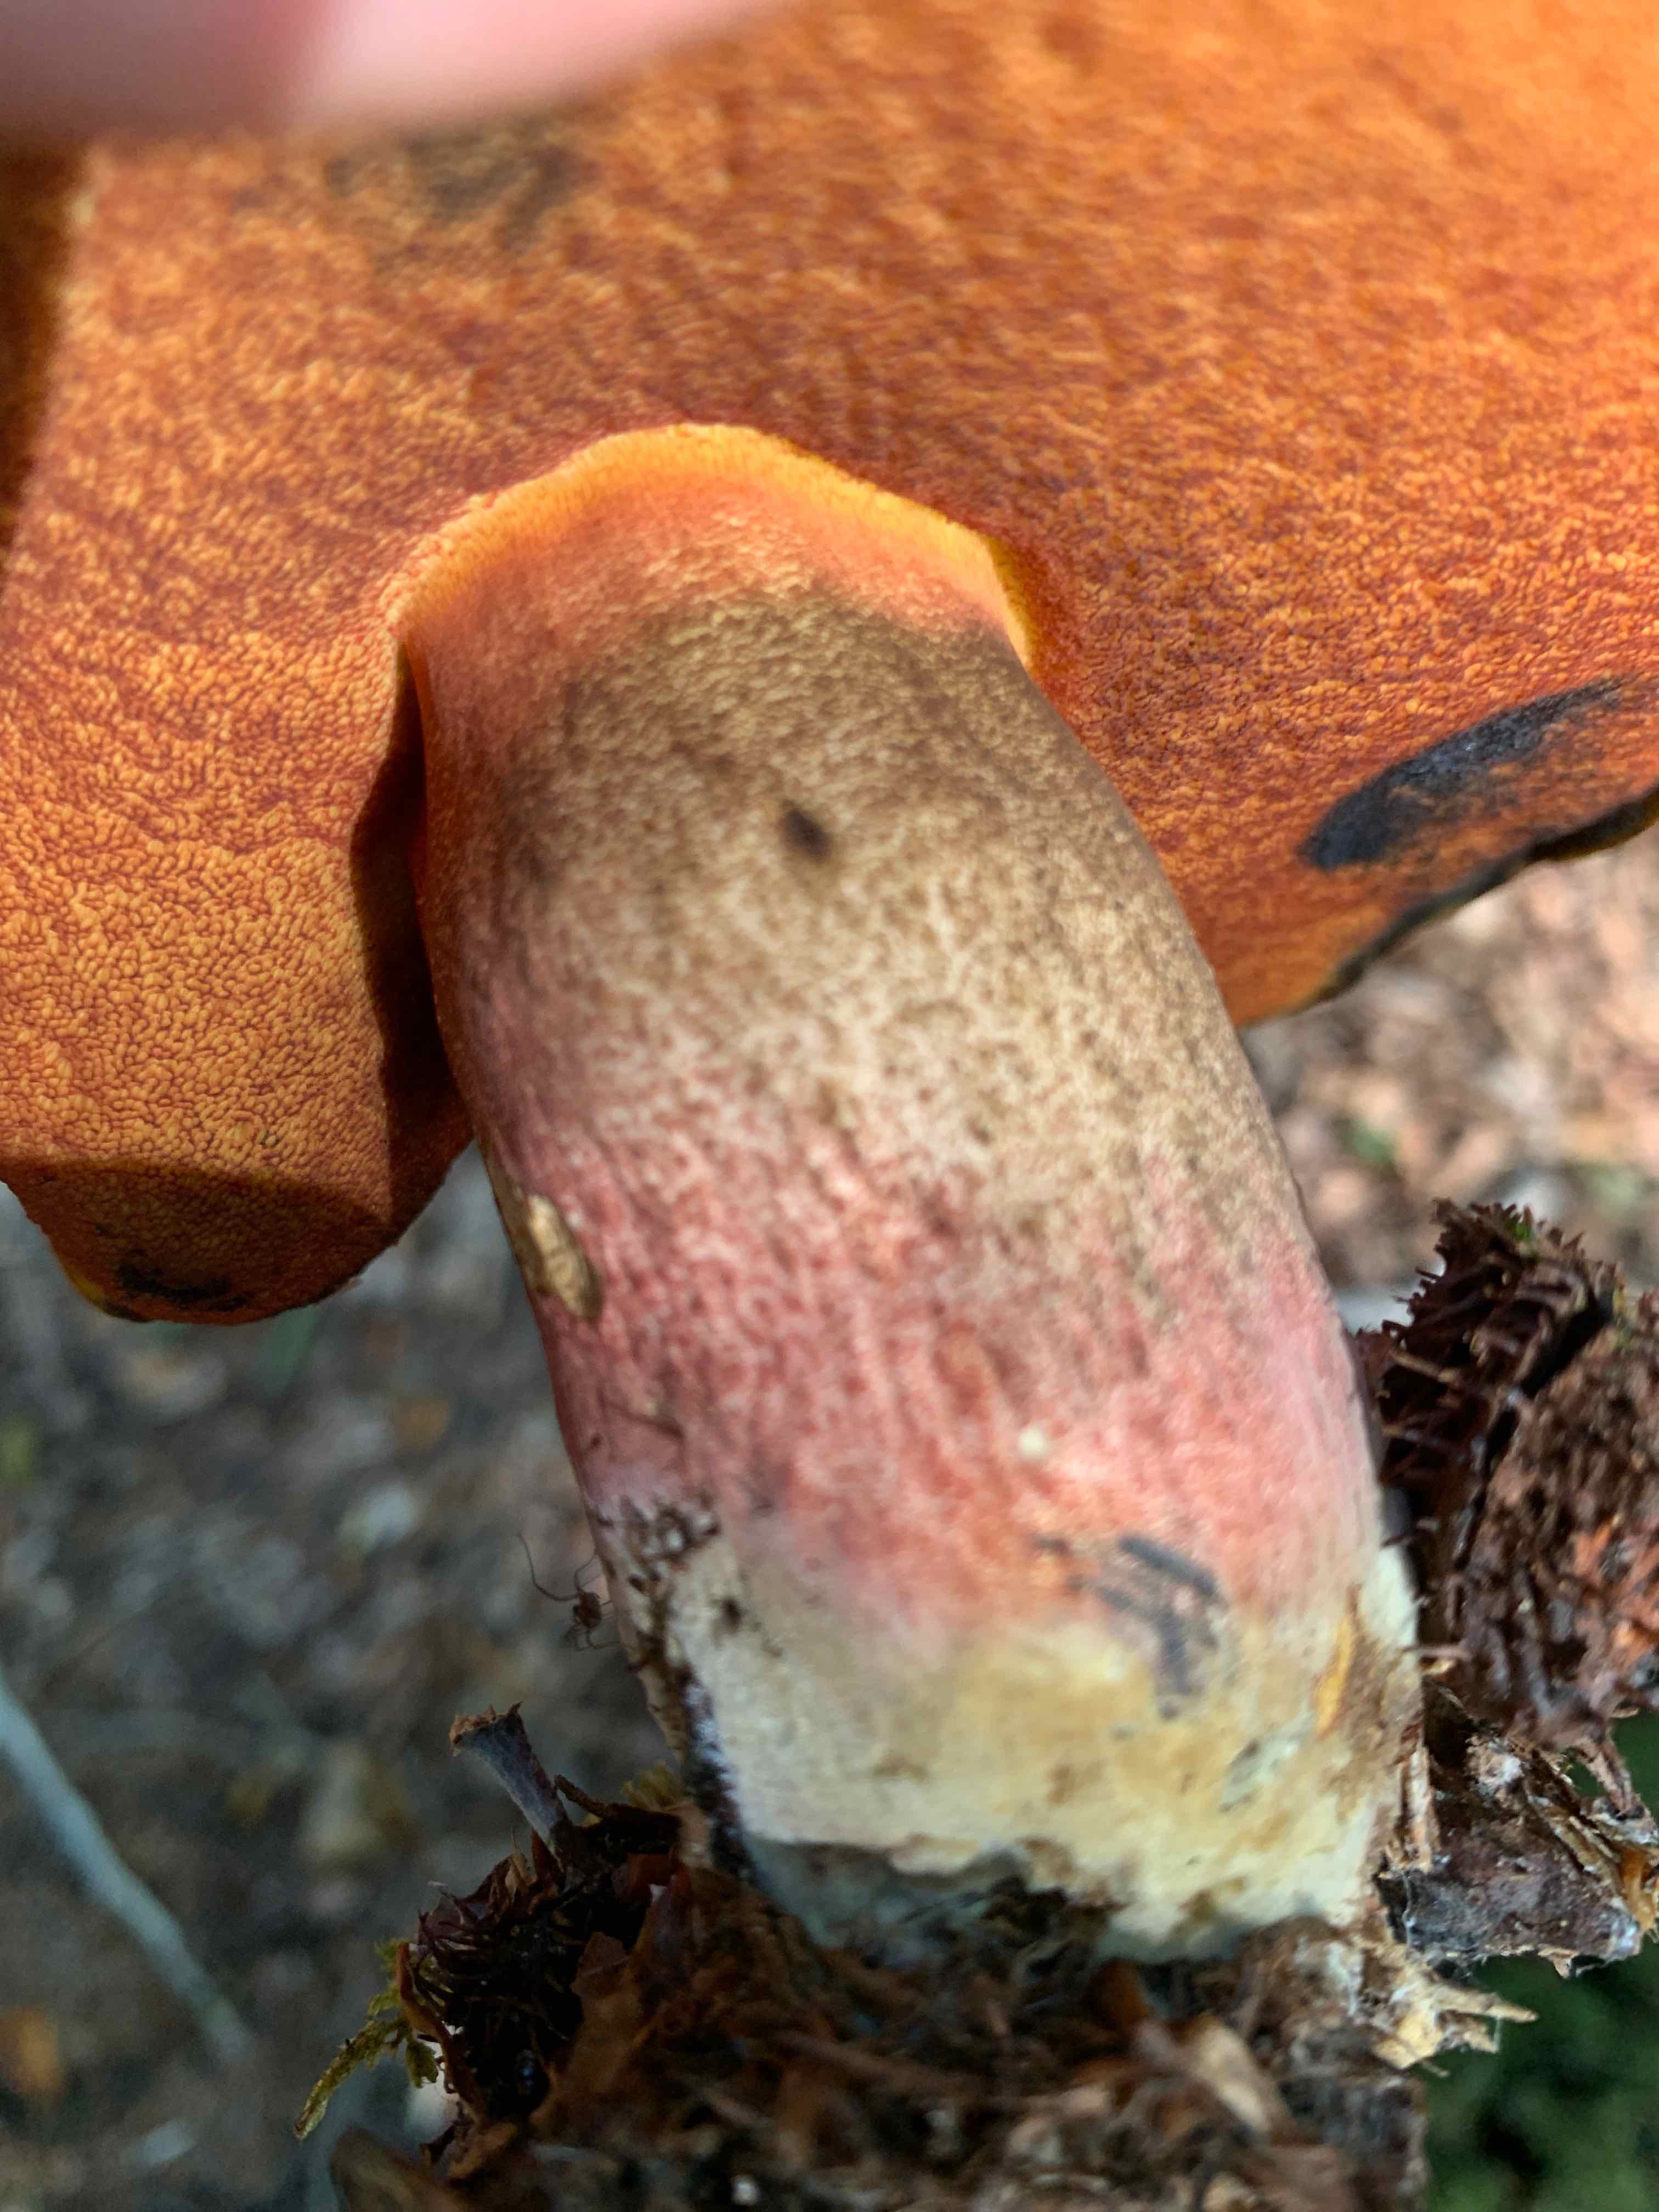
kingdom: Fungi
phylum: Basidiomycota
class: Agaricomycetes
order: Boletales
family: Boletaceae
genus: Neoboletus
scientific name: Neoboletus erythropus
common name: punktstokket indigorørhat
